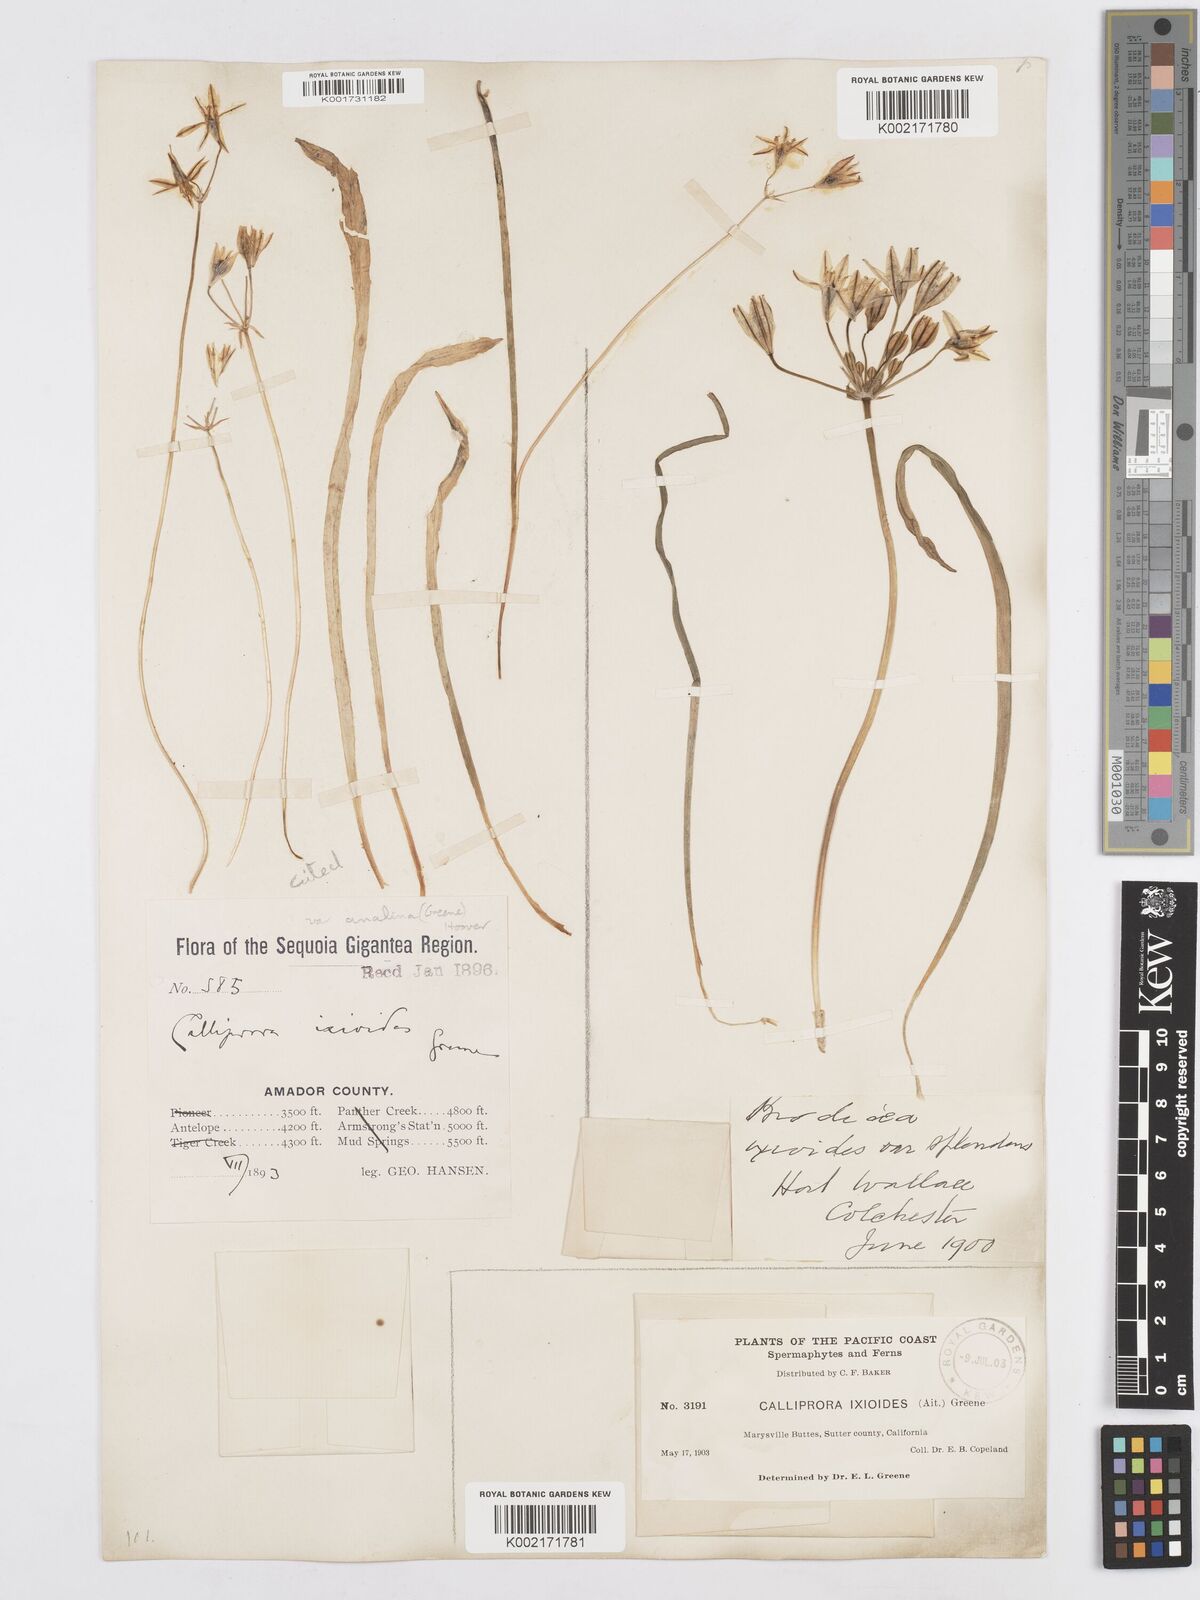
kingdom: Plantae
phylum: Tracheophyta
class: Liliopsida
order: Asparagales
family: Asparagaceae
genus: Triteleia
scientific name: Triteleia ixioides
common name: Yellow-brodiaea
